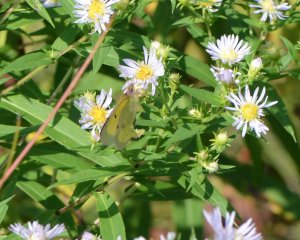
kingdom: Animalia
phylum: Arthropoda
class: Insecta
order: Lepidoptera
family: Pieridae
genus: Colias
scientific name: Colias philodice
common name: Clouded Sulphur
